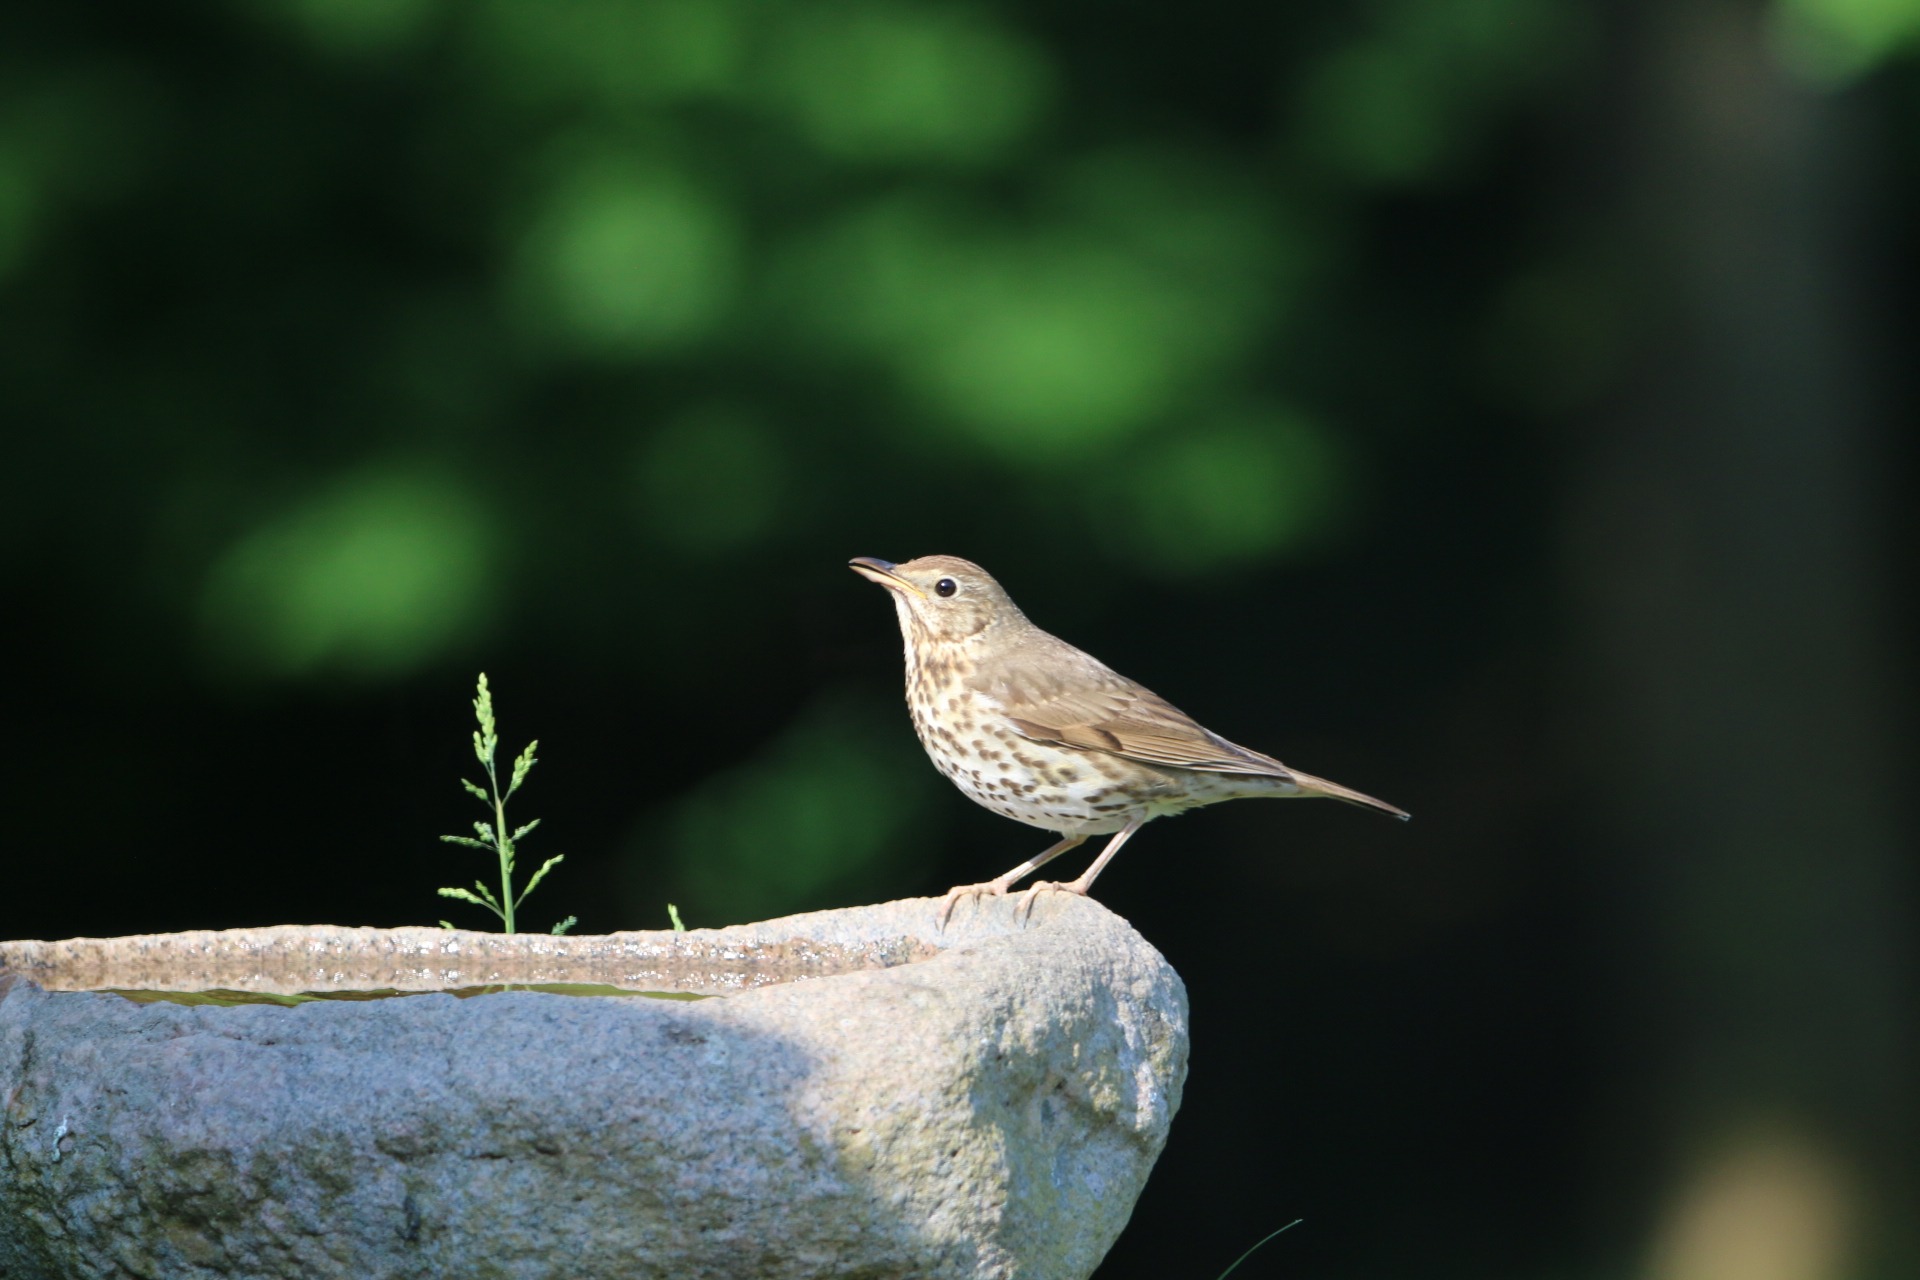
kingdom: Animalia
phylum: Chordata
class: Aves
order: Passeriformes
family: Turdidae
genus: Turdus
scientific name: Turdus philomelos
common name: Sangdrossel
